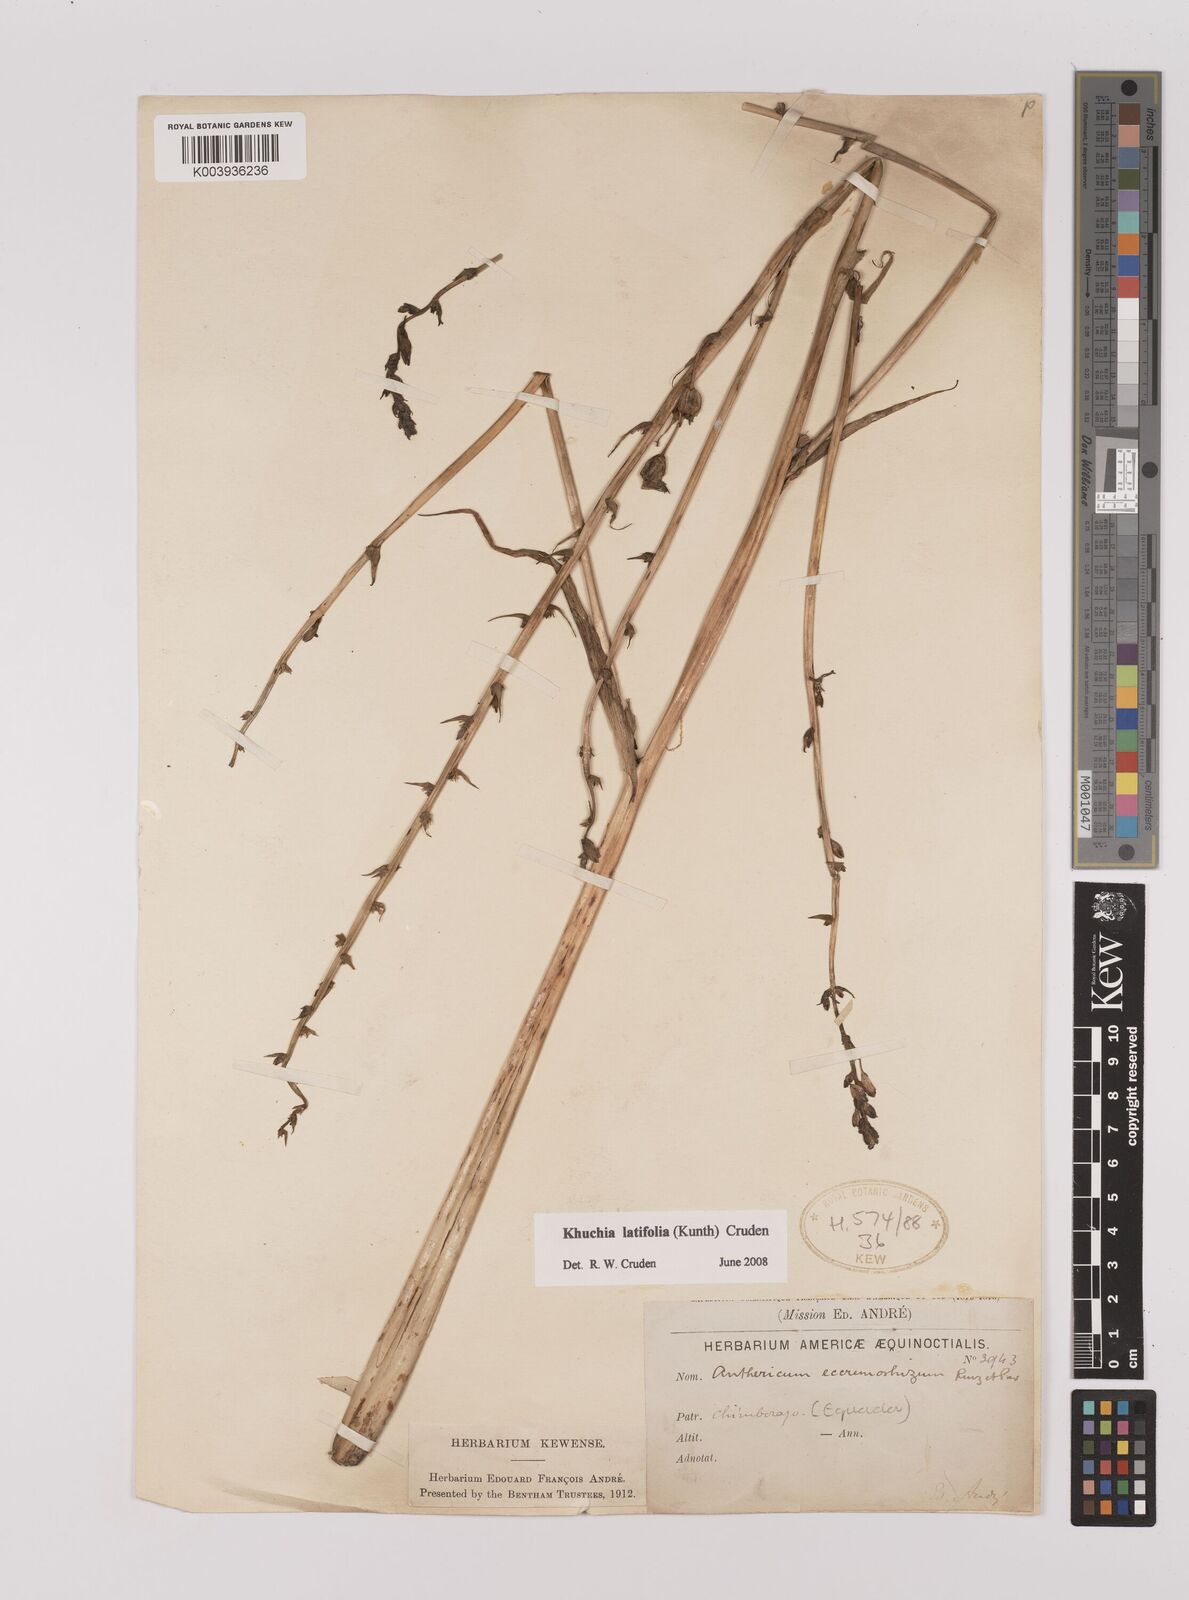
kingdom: Plantae
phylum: Tracheophyta
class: Liliopsida
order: Asparagales
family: Asparagaceae
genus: Echeandia
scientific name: Echeandia
